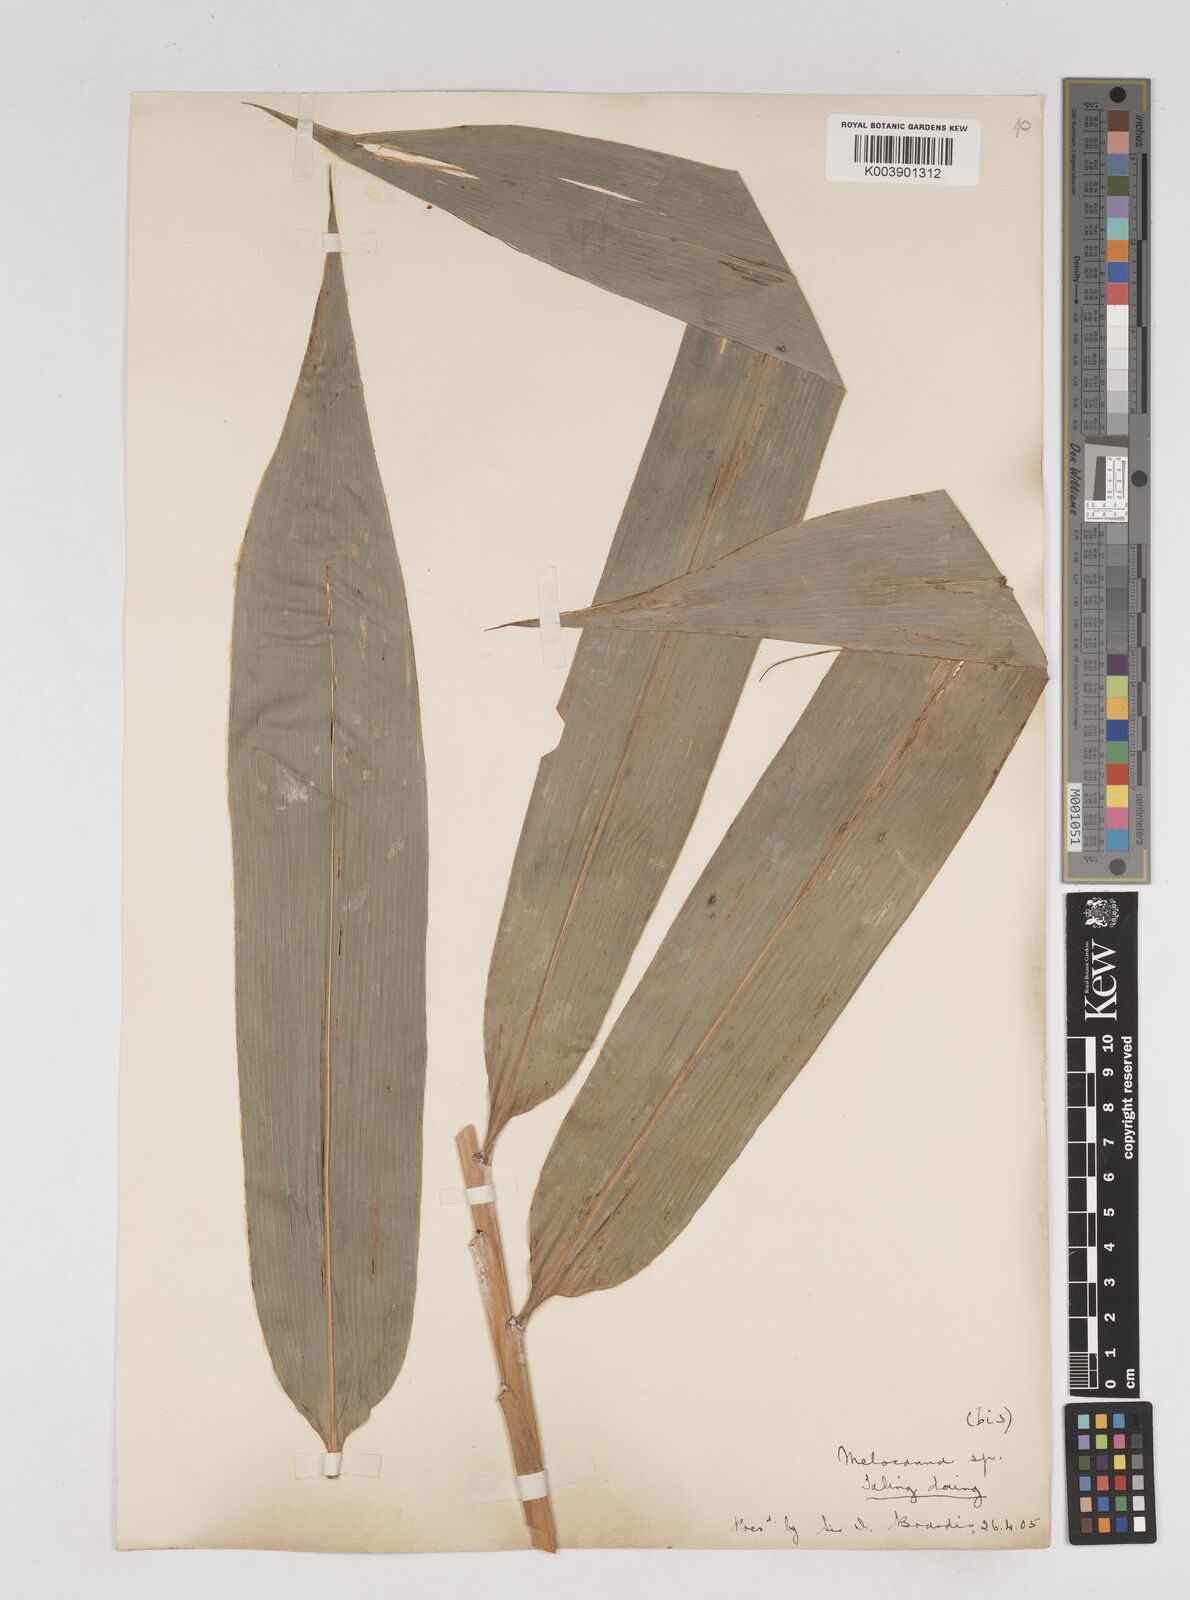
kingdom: Plantae
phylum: Tracheophyta
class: Liliopsida
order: Poales
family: Poaceae
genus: Melocanna
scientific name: Melocanna
